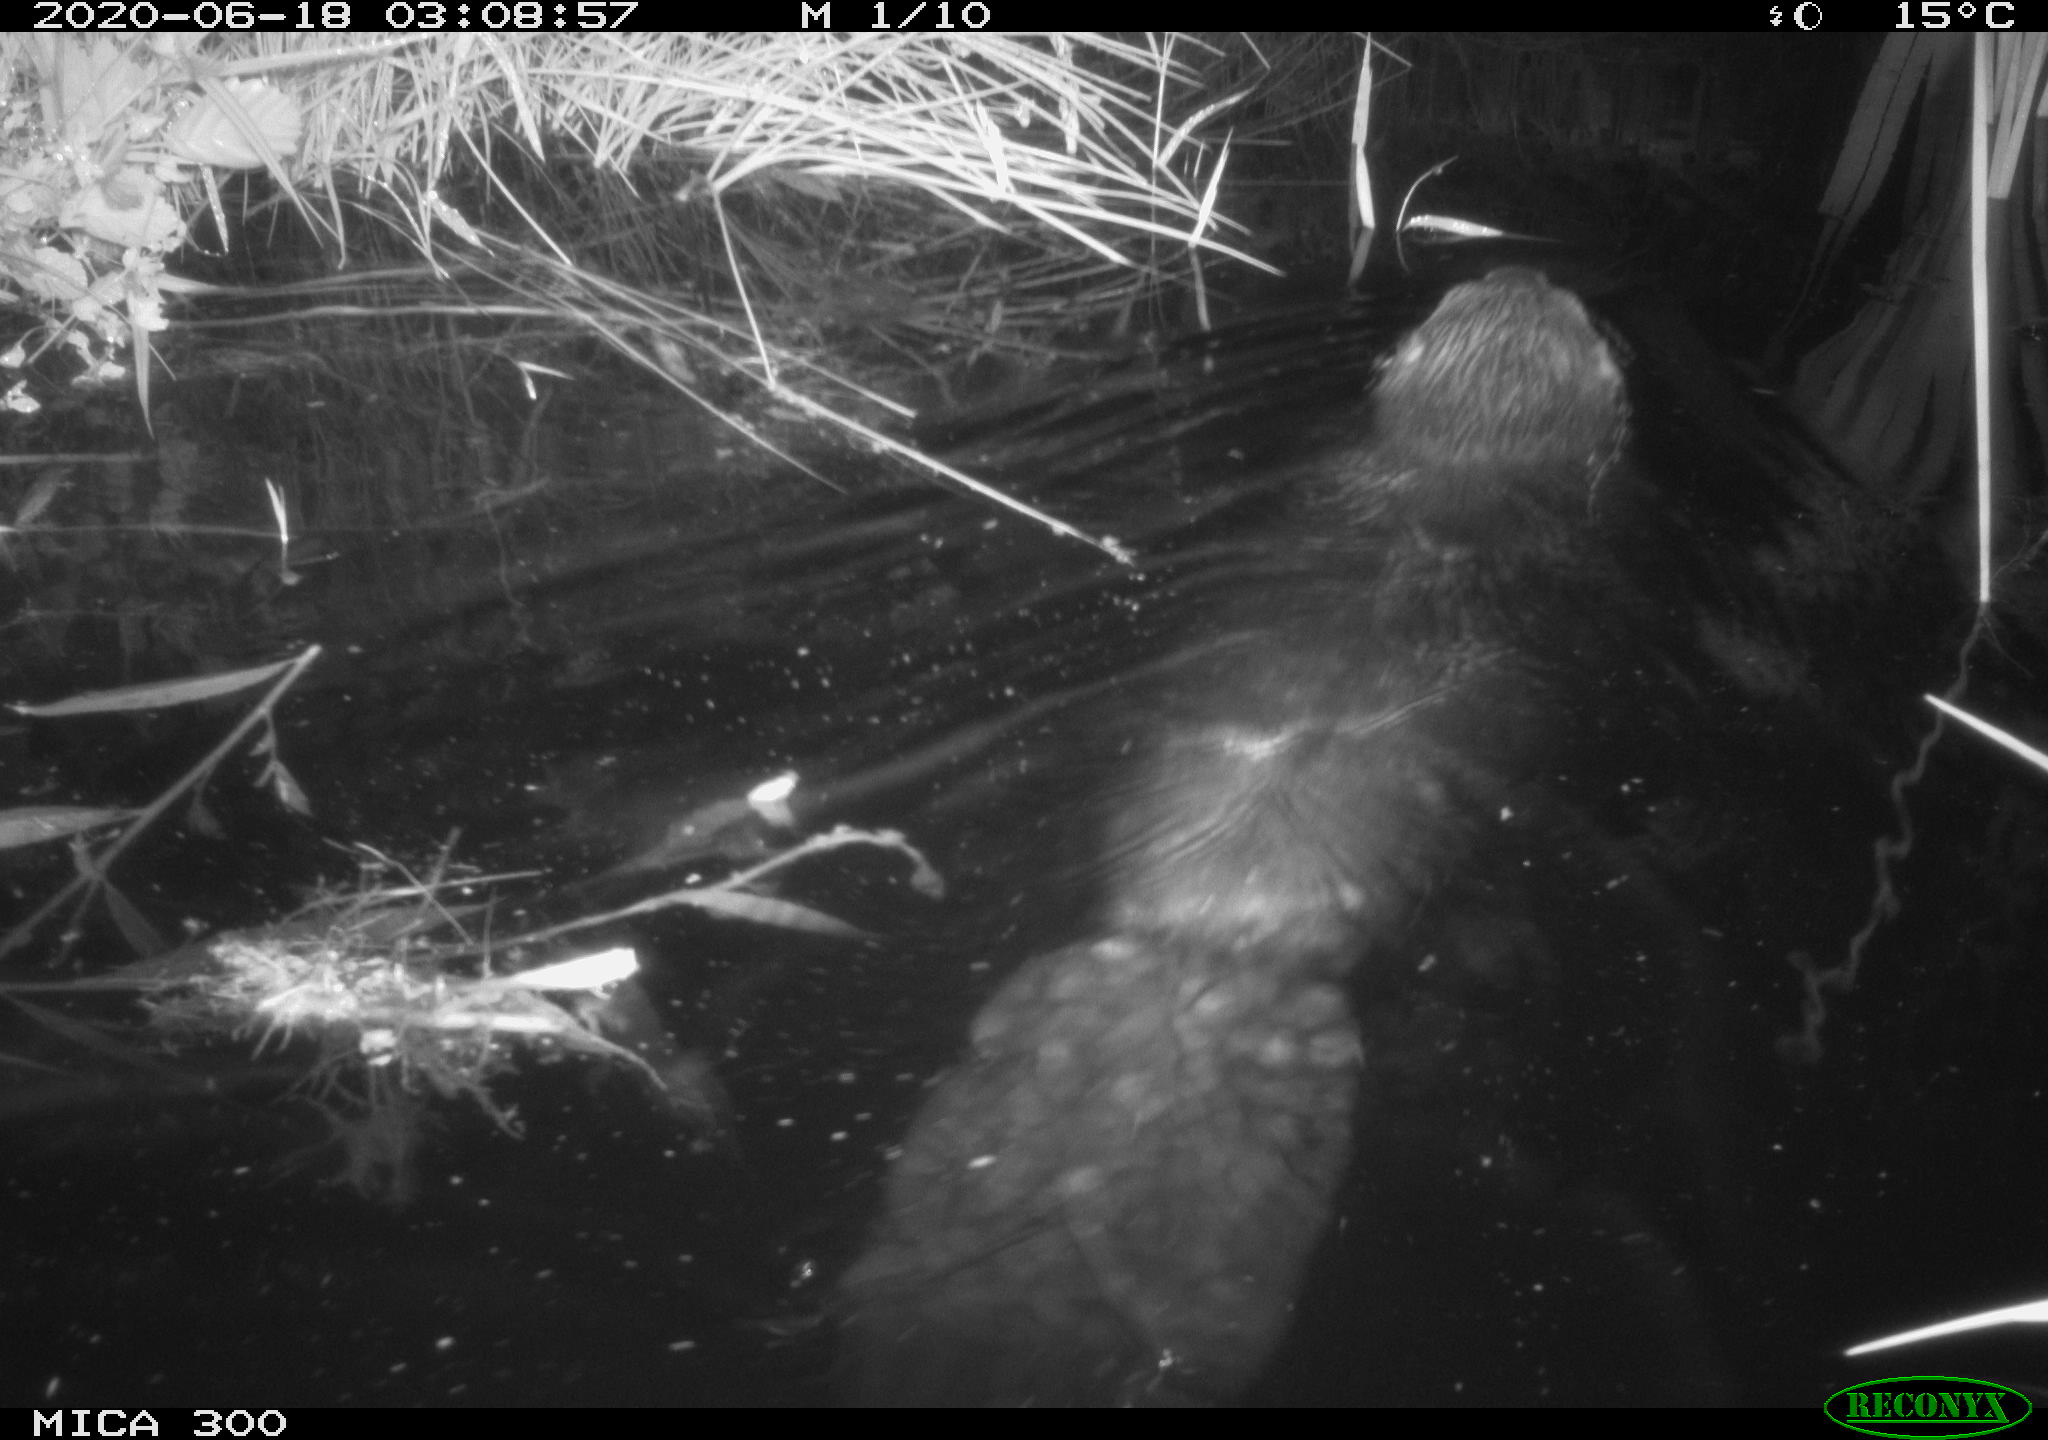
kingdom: Animalia
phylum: Chordata
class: Mammalia
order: Rodentia
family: Castoridae
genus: Castor
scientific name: Castor fiber
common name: Eurasian beaver
